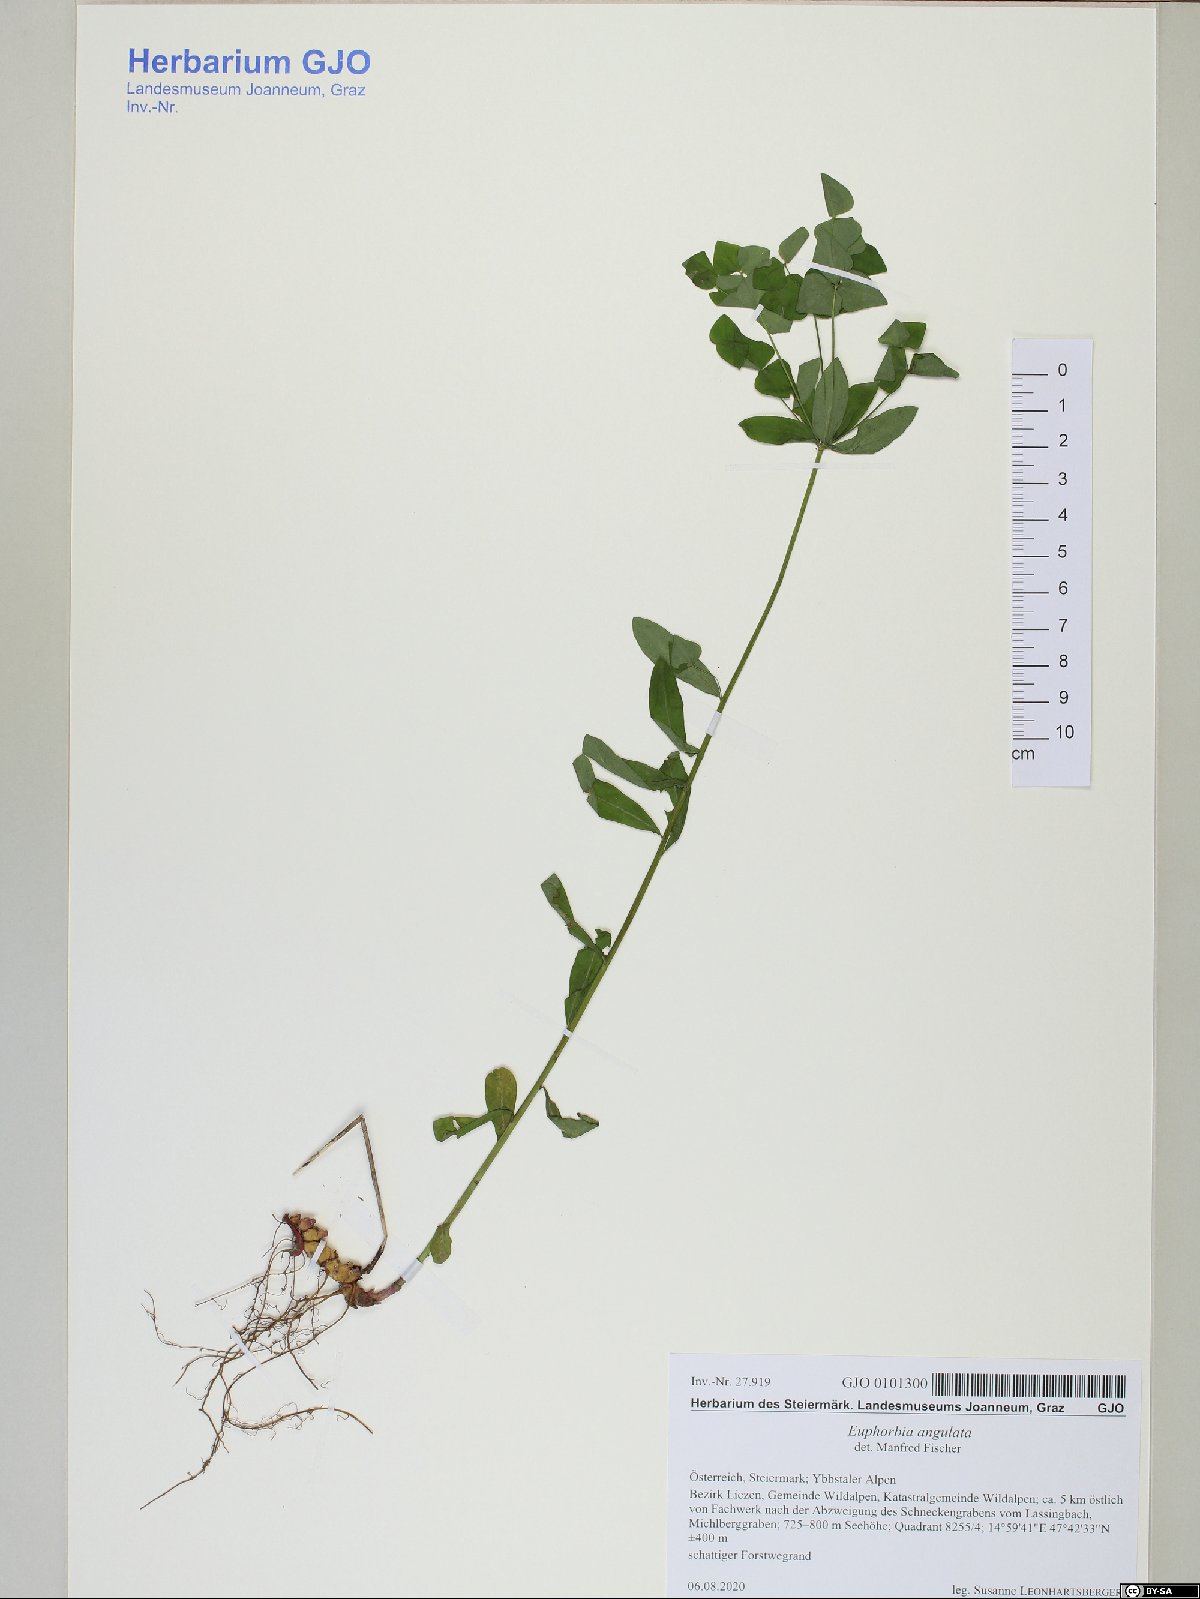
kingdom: Plantae
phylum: Tracheophyta
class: Magnoliopsida
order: Malpighiales
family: Euphorbiaceae
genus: Euphorbia
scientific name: Euphorbia angulata
